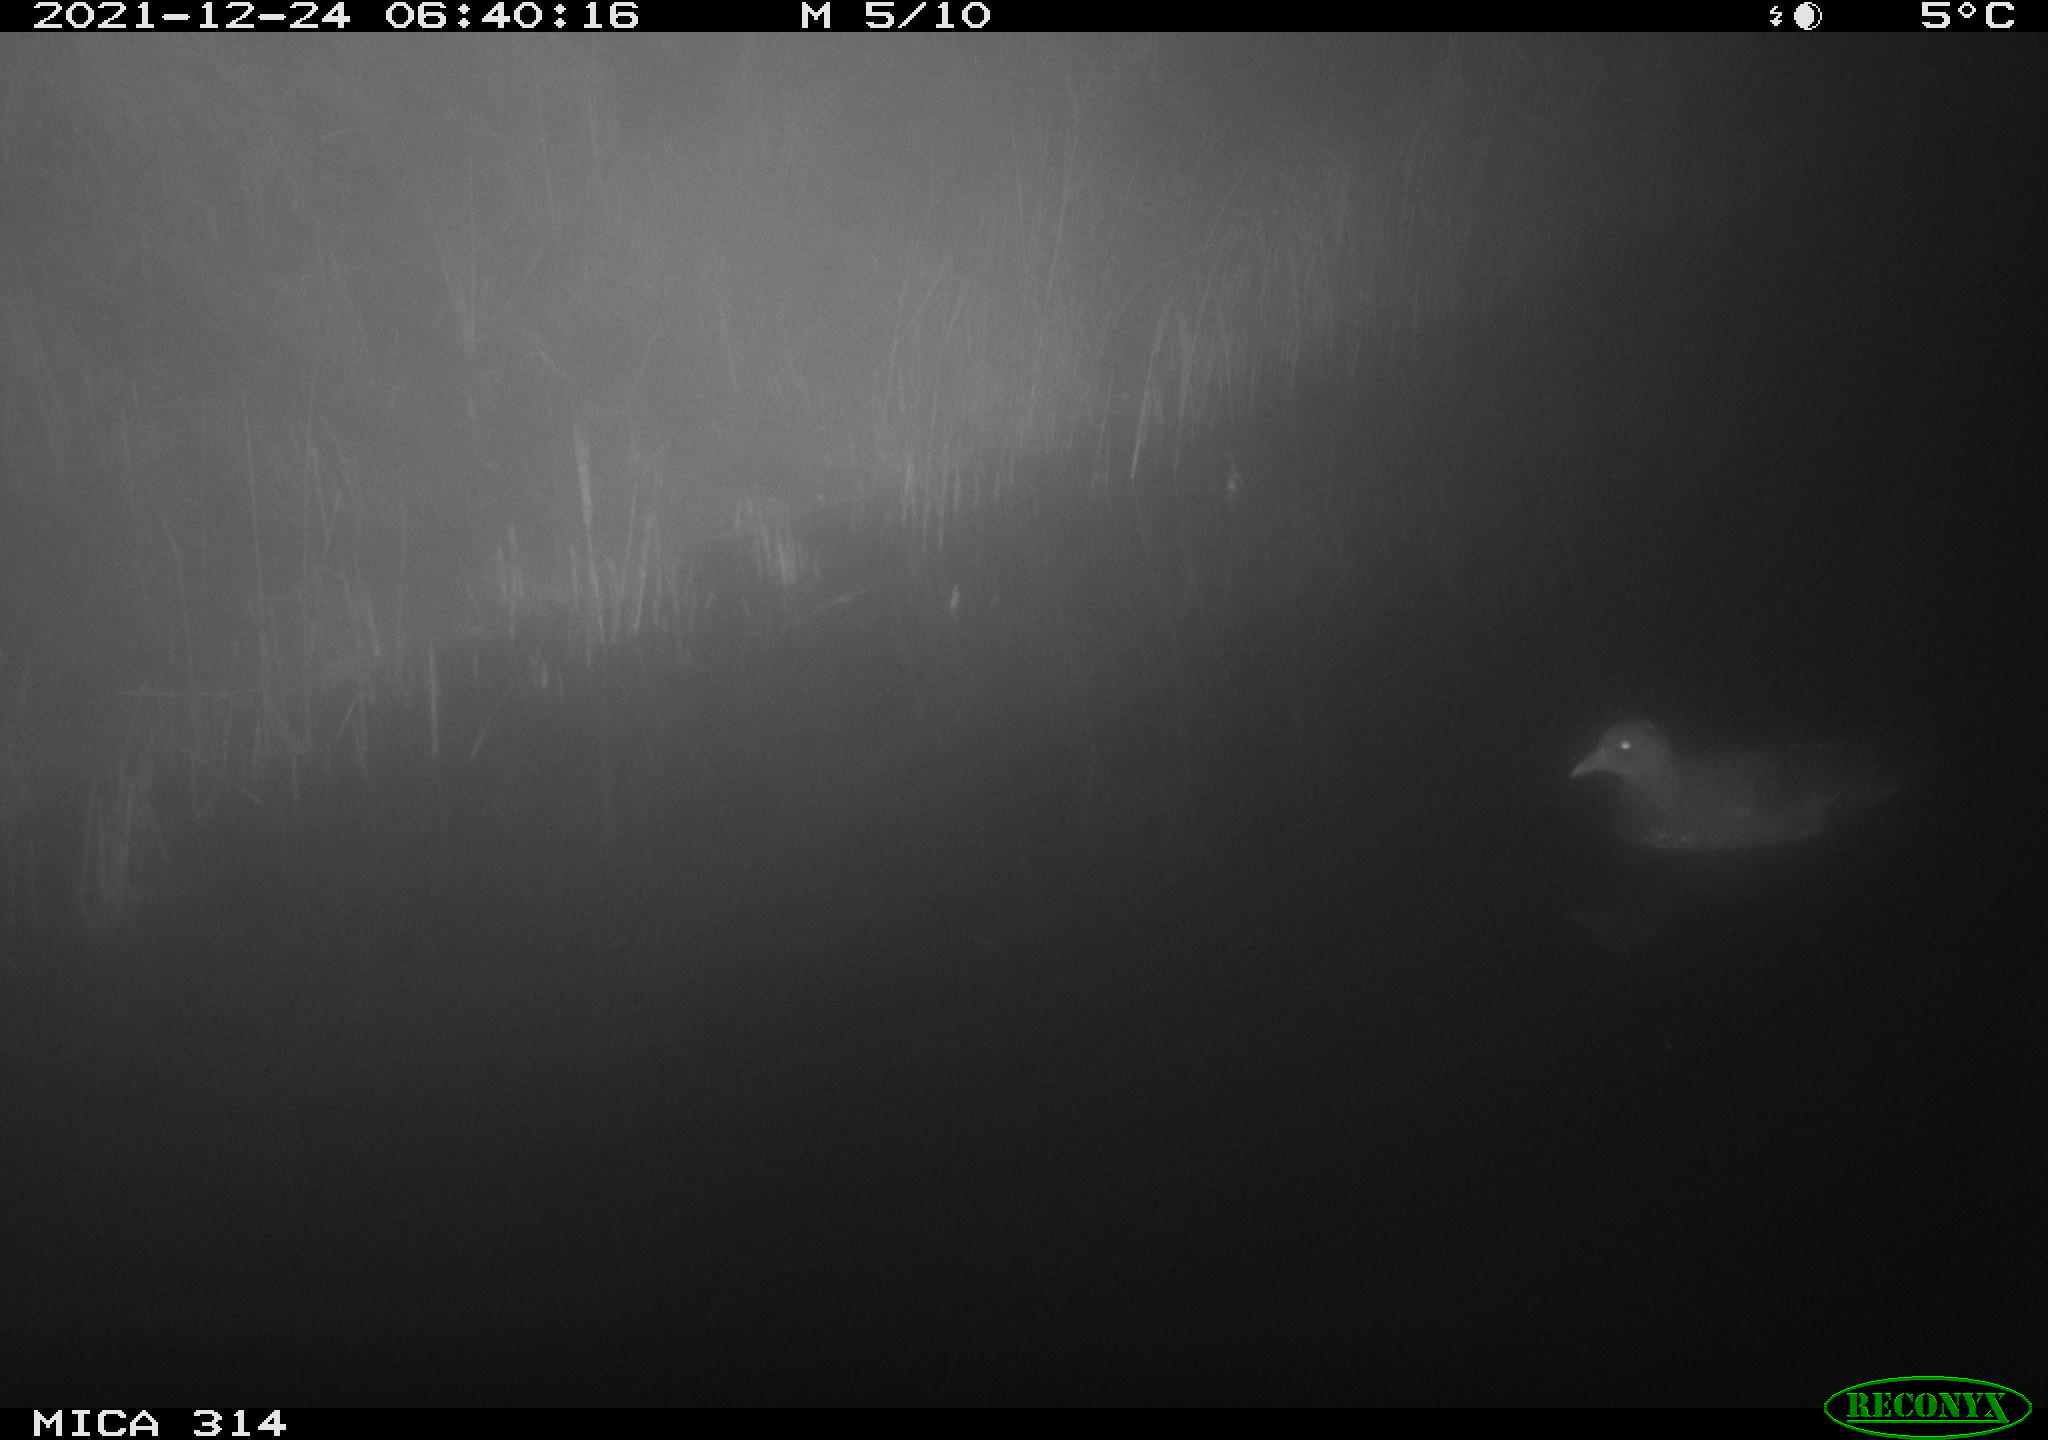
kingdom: Animalia
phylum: Chordata
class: Aves
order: Gruiformes
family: Rallidae
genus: Gallinula
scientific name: Gallinula chloropus
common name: Common moorhen
